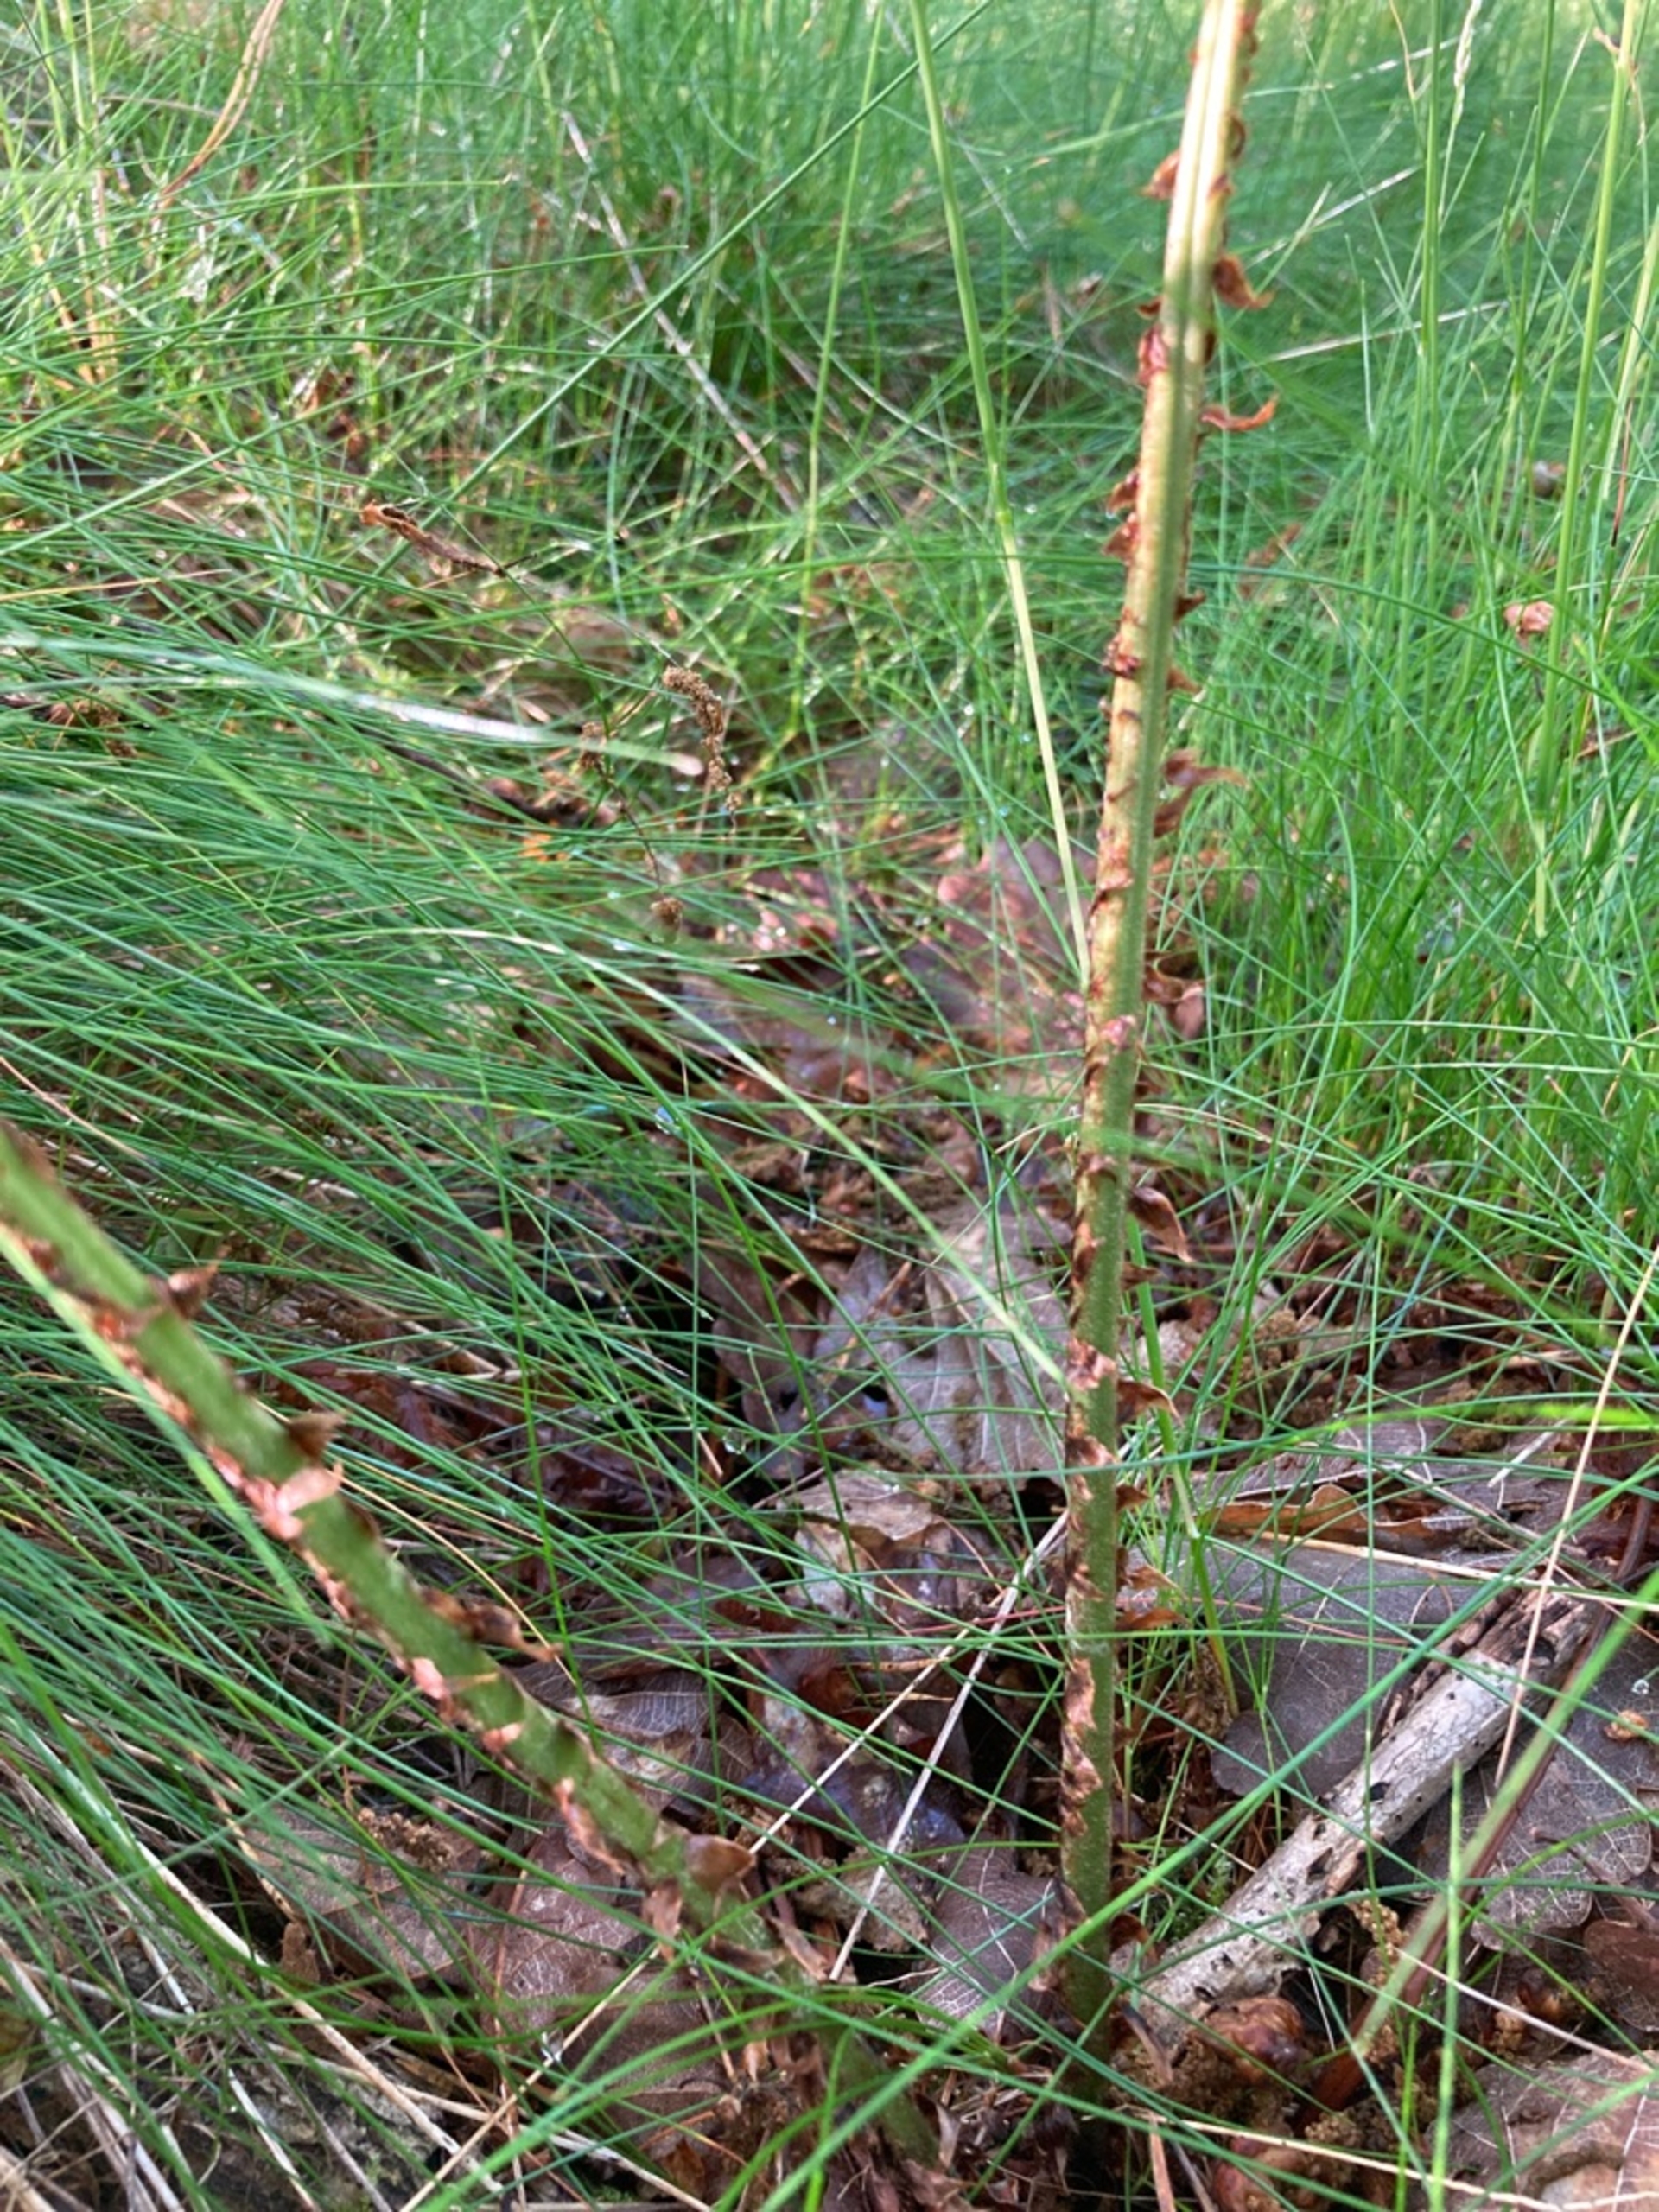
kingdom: Plantae
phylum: Tracheophyta
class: Polypodiopsida
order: Polypodiales
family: Dryopteridaceae
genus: Dryopteris
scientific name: Dryopteris dilatata
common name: Bredbladet mangeløv
